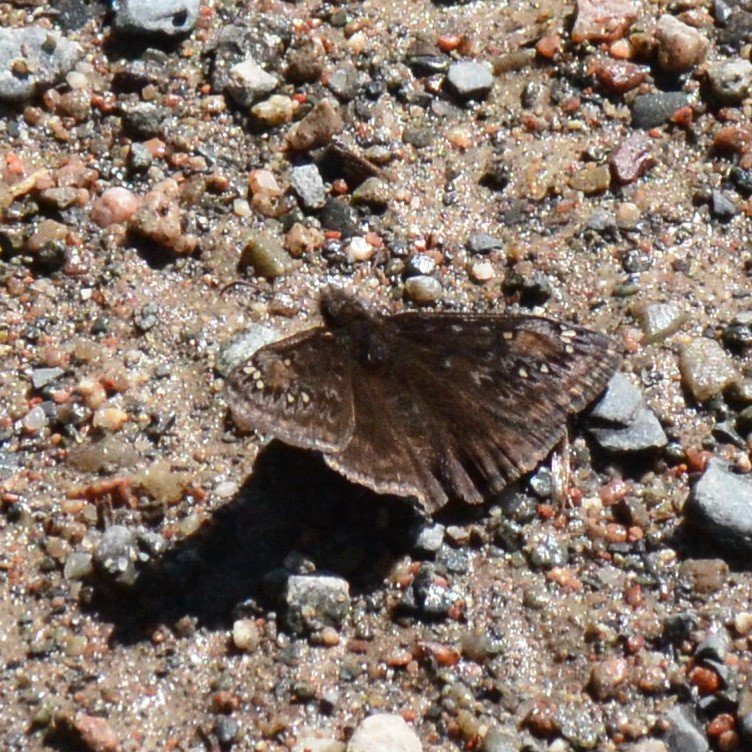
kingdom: Animalia
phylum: Arthropoda
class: Insecta
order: Lepidoptera
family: Hesperiidae
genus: Gesta
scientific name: Gesta
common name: Columbine Duskywing
